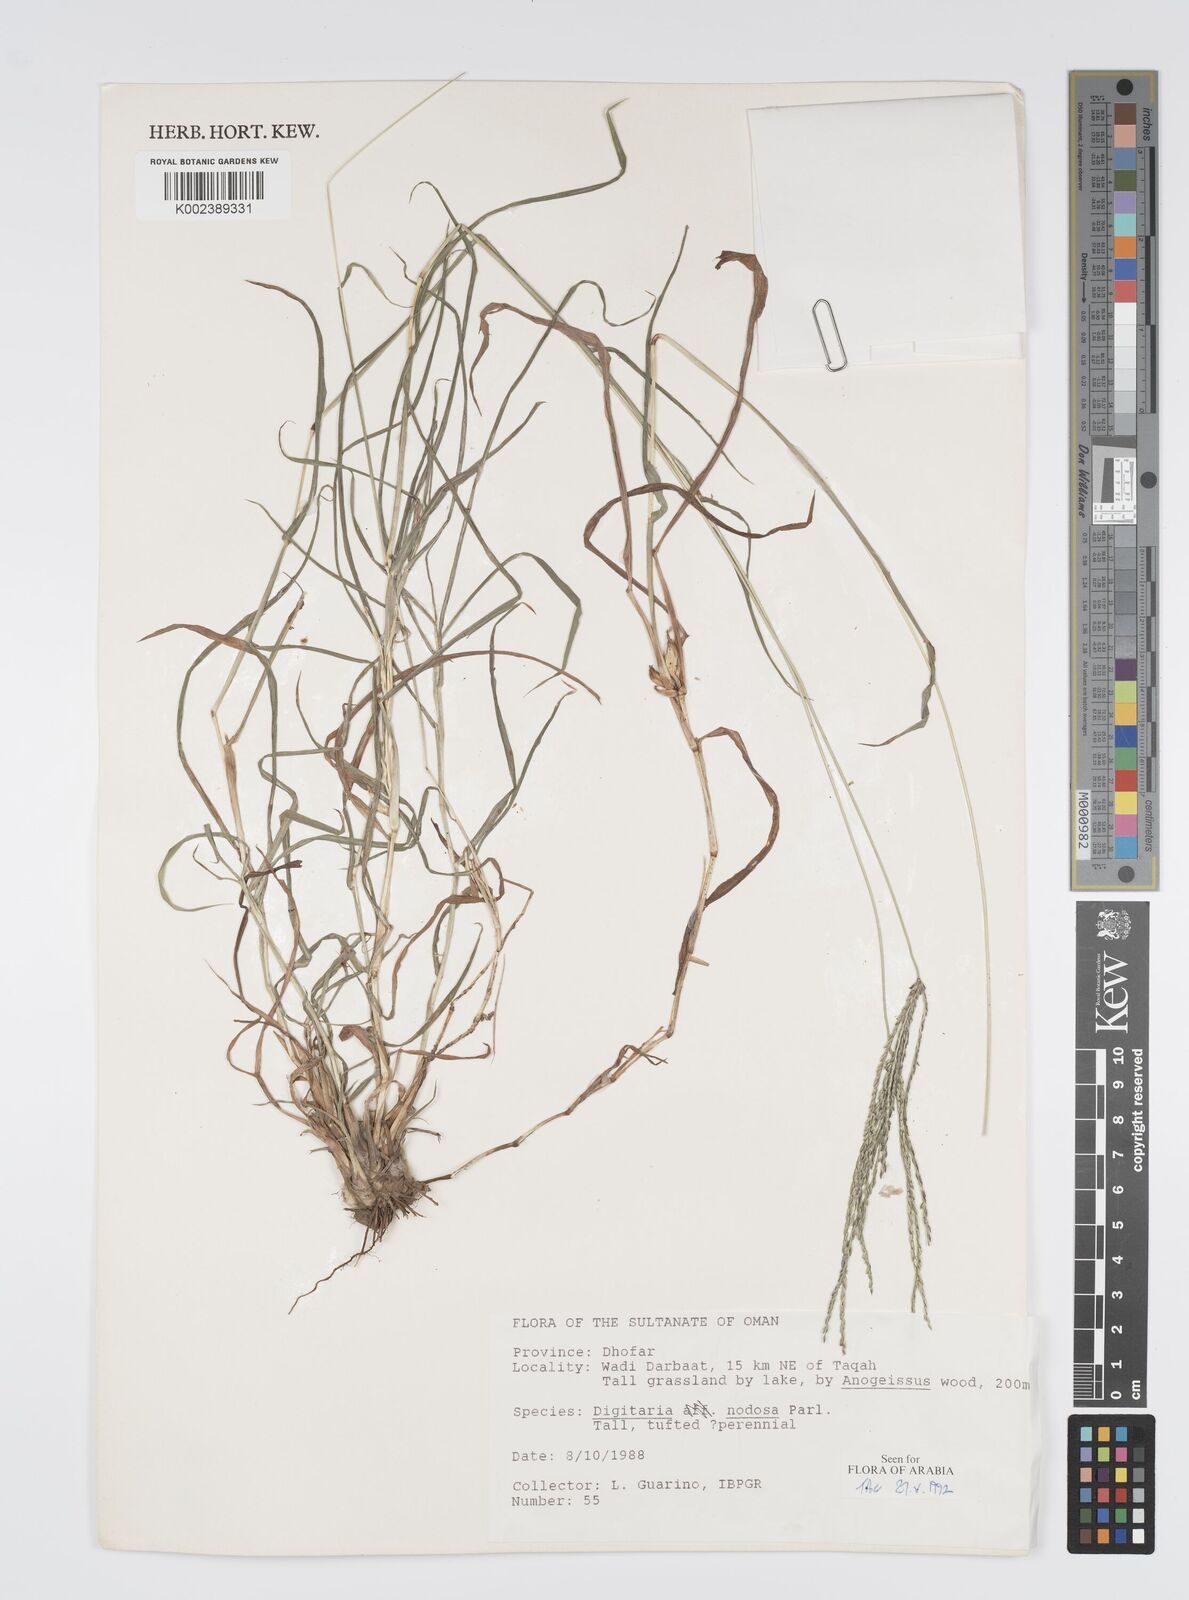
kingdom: Plantae
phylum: Tracheophyta
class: Liliopsida
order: Poales
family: Poaceae
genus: Digitaria
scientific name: Digitaria nodosa
